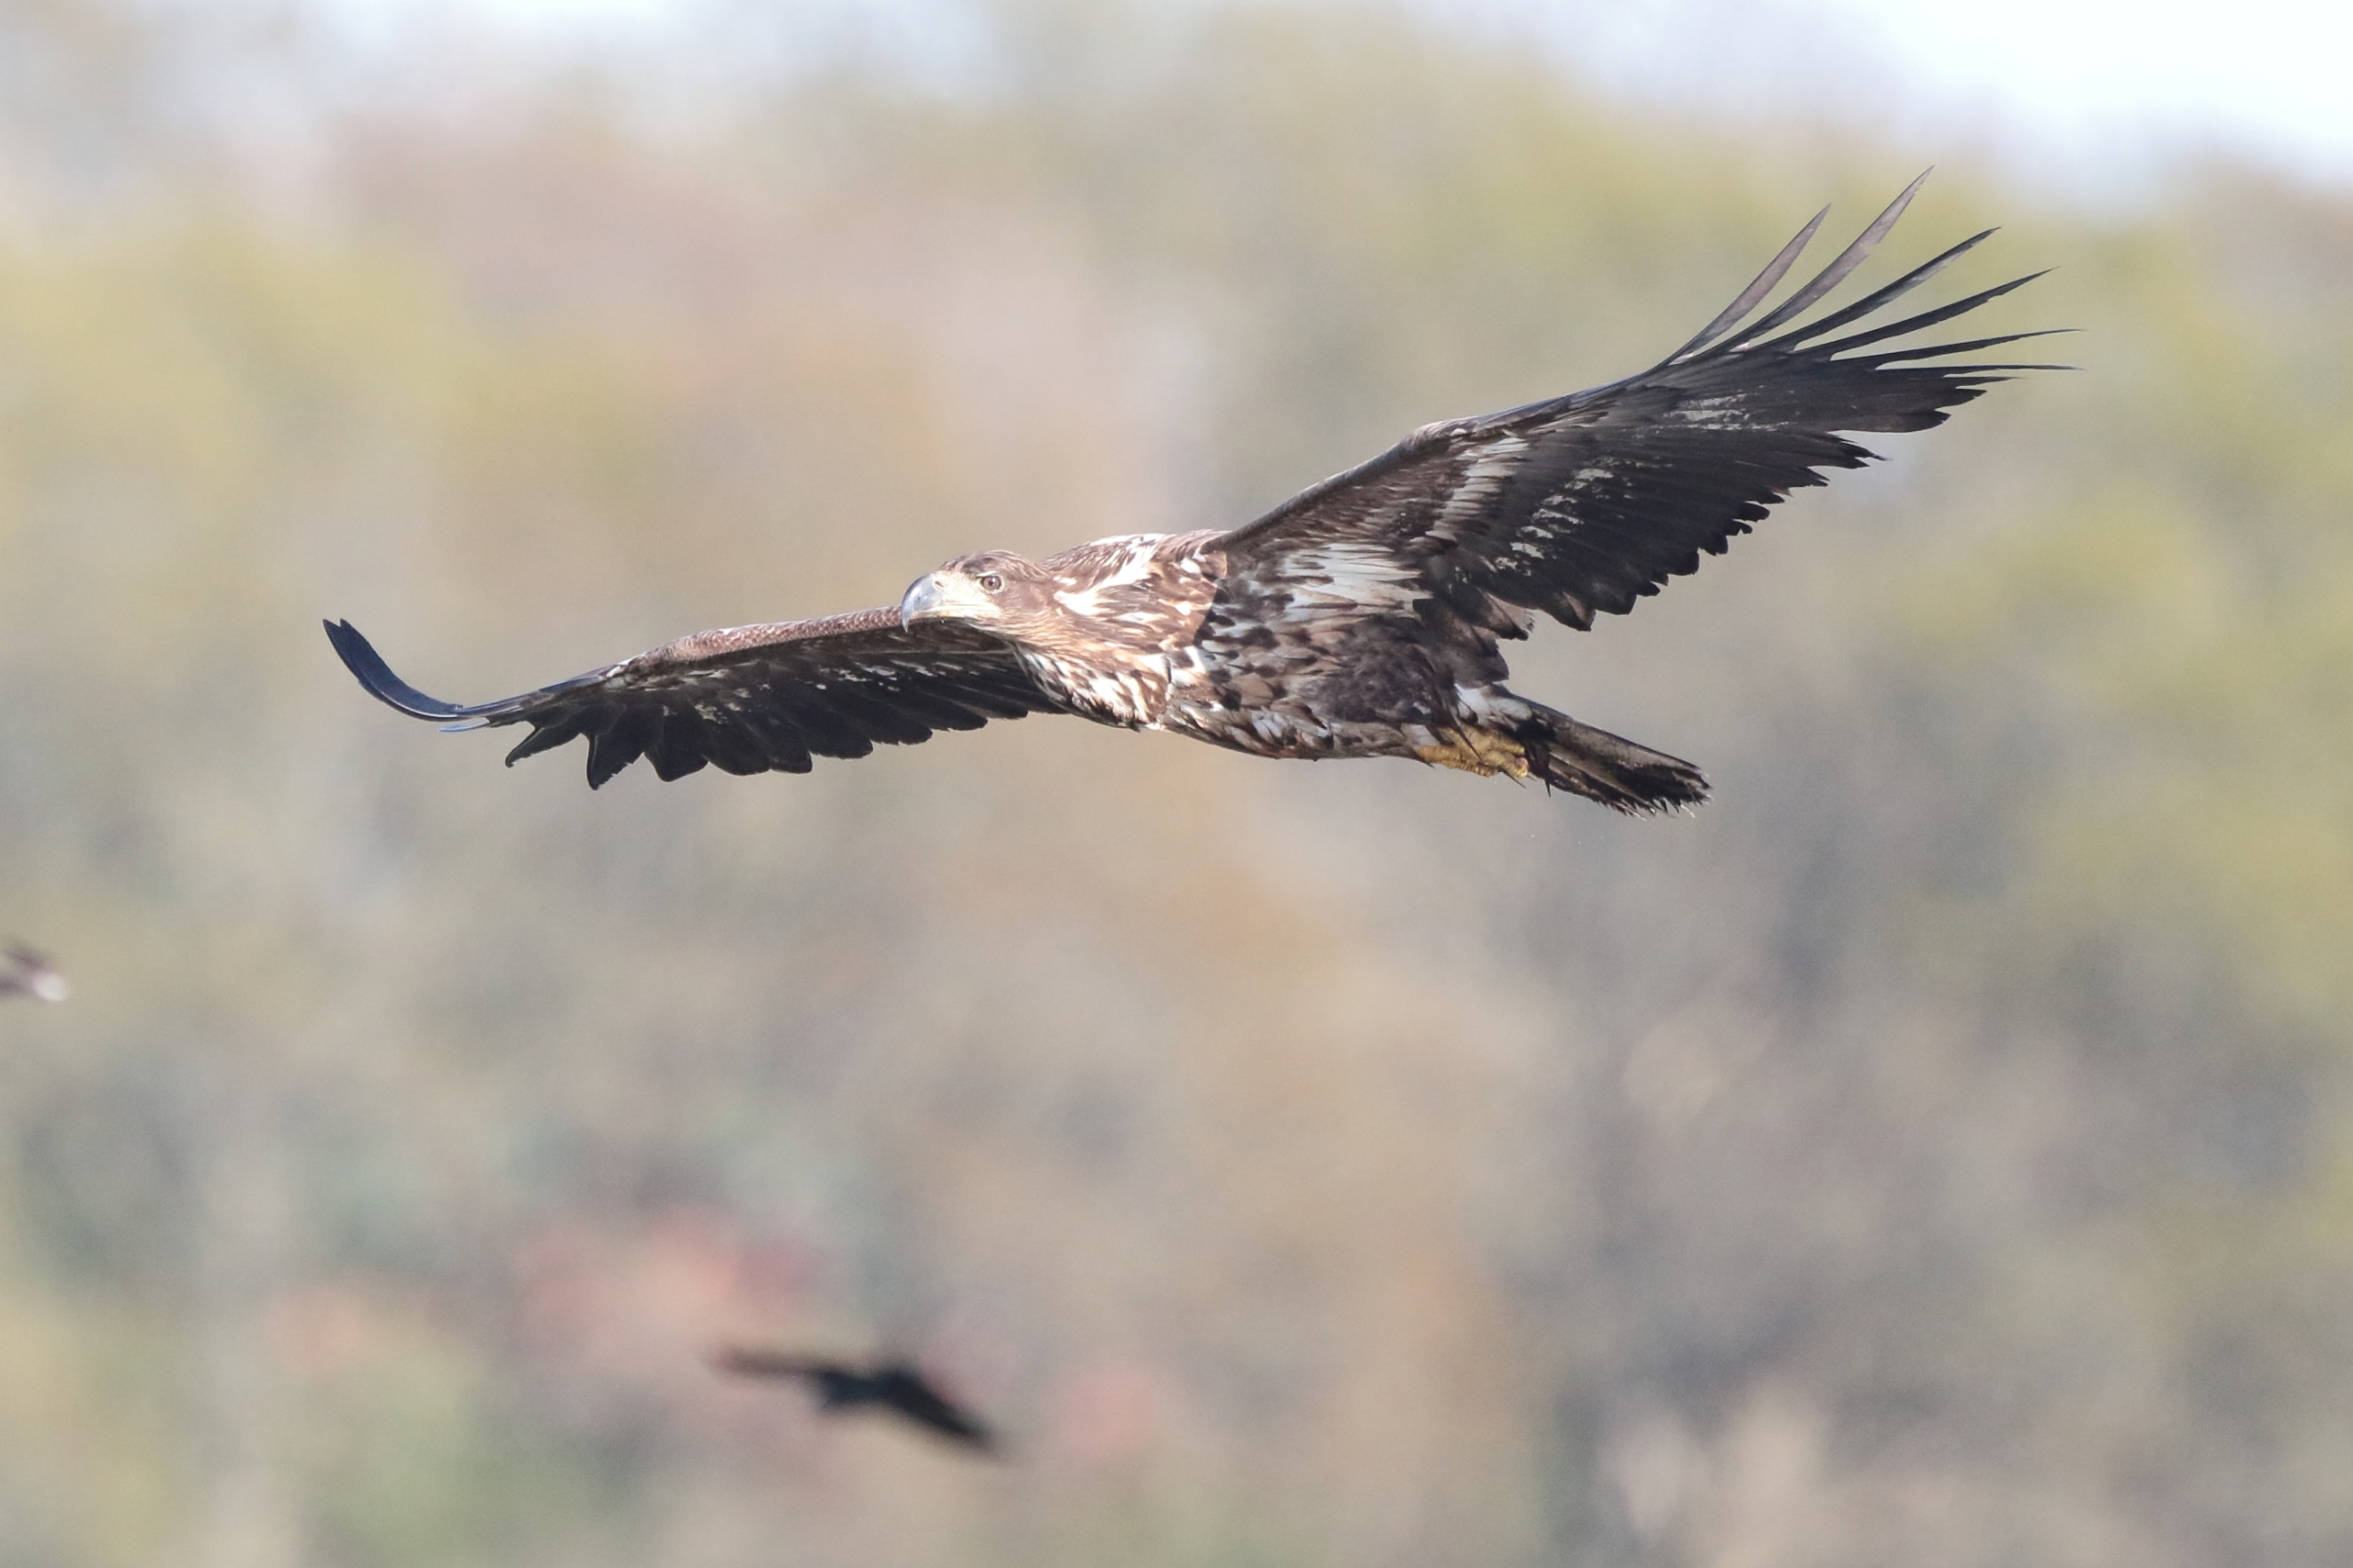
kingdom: Animalia
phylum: Chordata
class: Aves
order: Accipitriformes
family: Accipitridae
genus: Haliaeetus
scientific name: Haliaeetus albicilla
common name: Havørn
